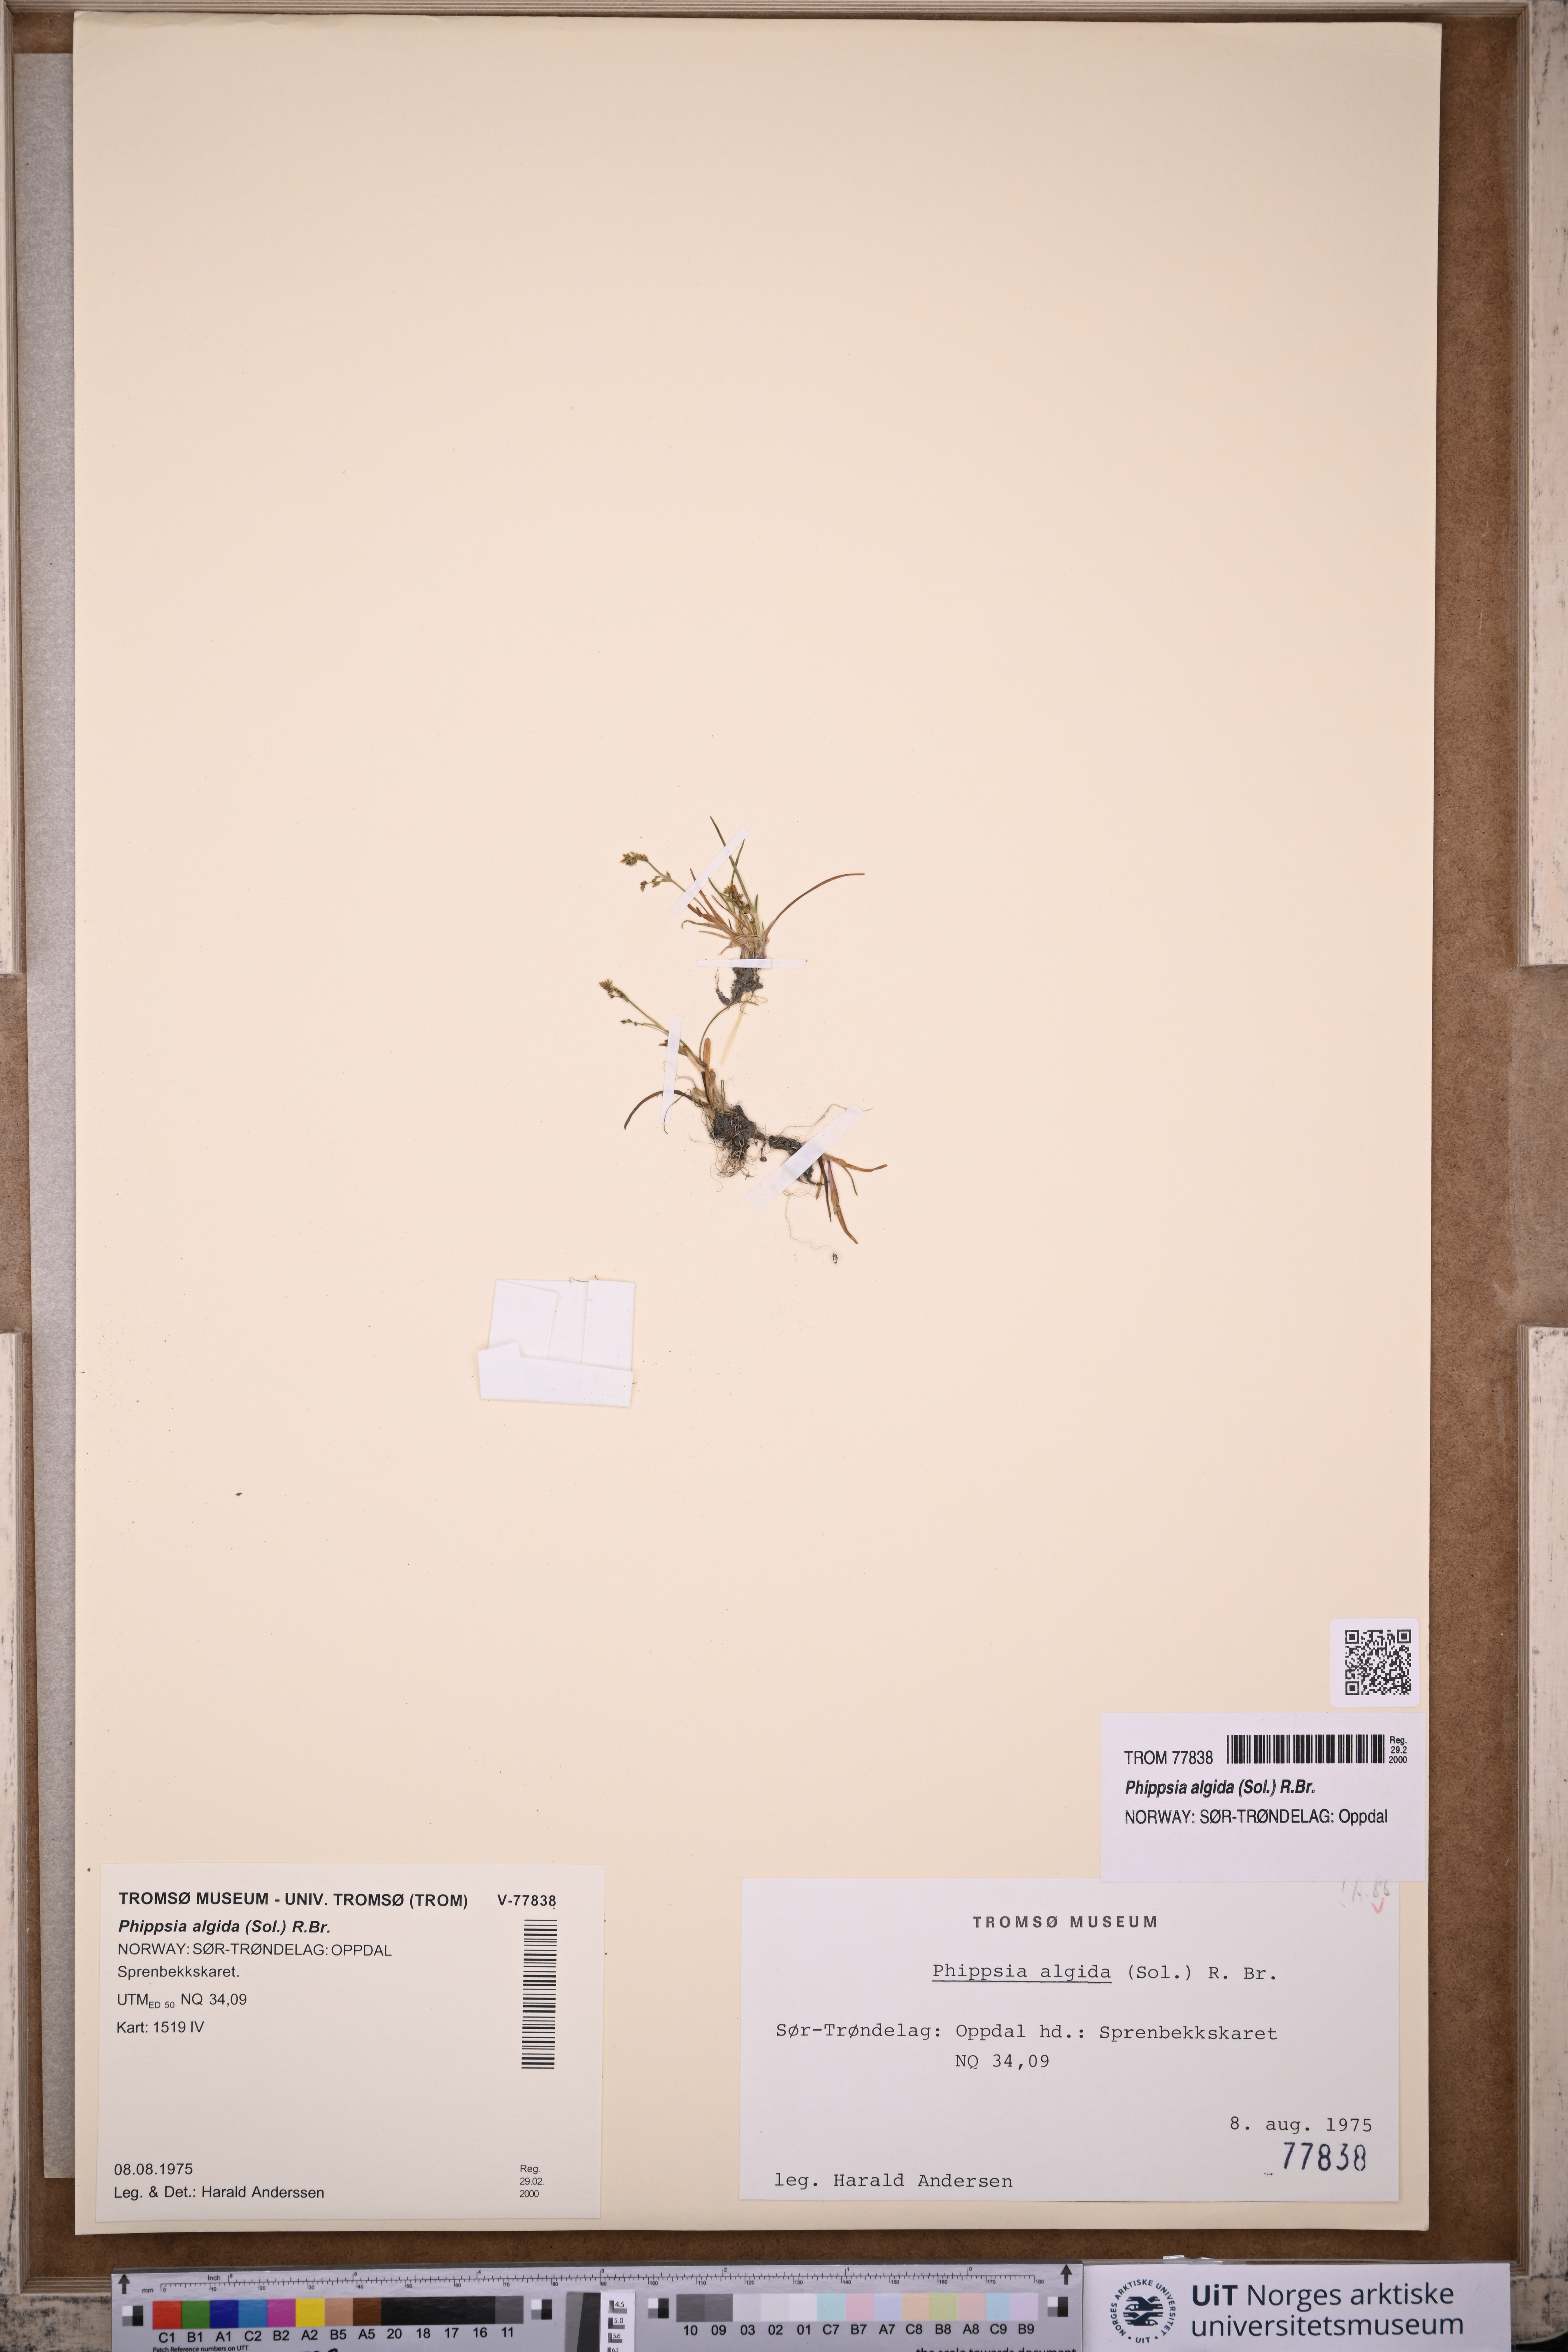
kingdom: Plantae
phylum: Tracheophyta
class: Liliopsida
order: Poales
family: Poaceae
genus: Phippsia
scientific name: Phippsia algida
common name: Ice grass
